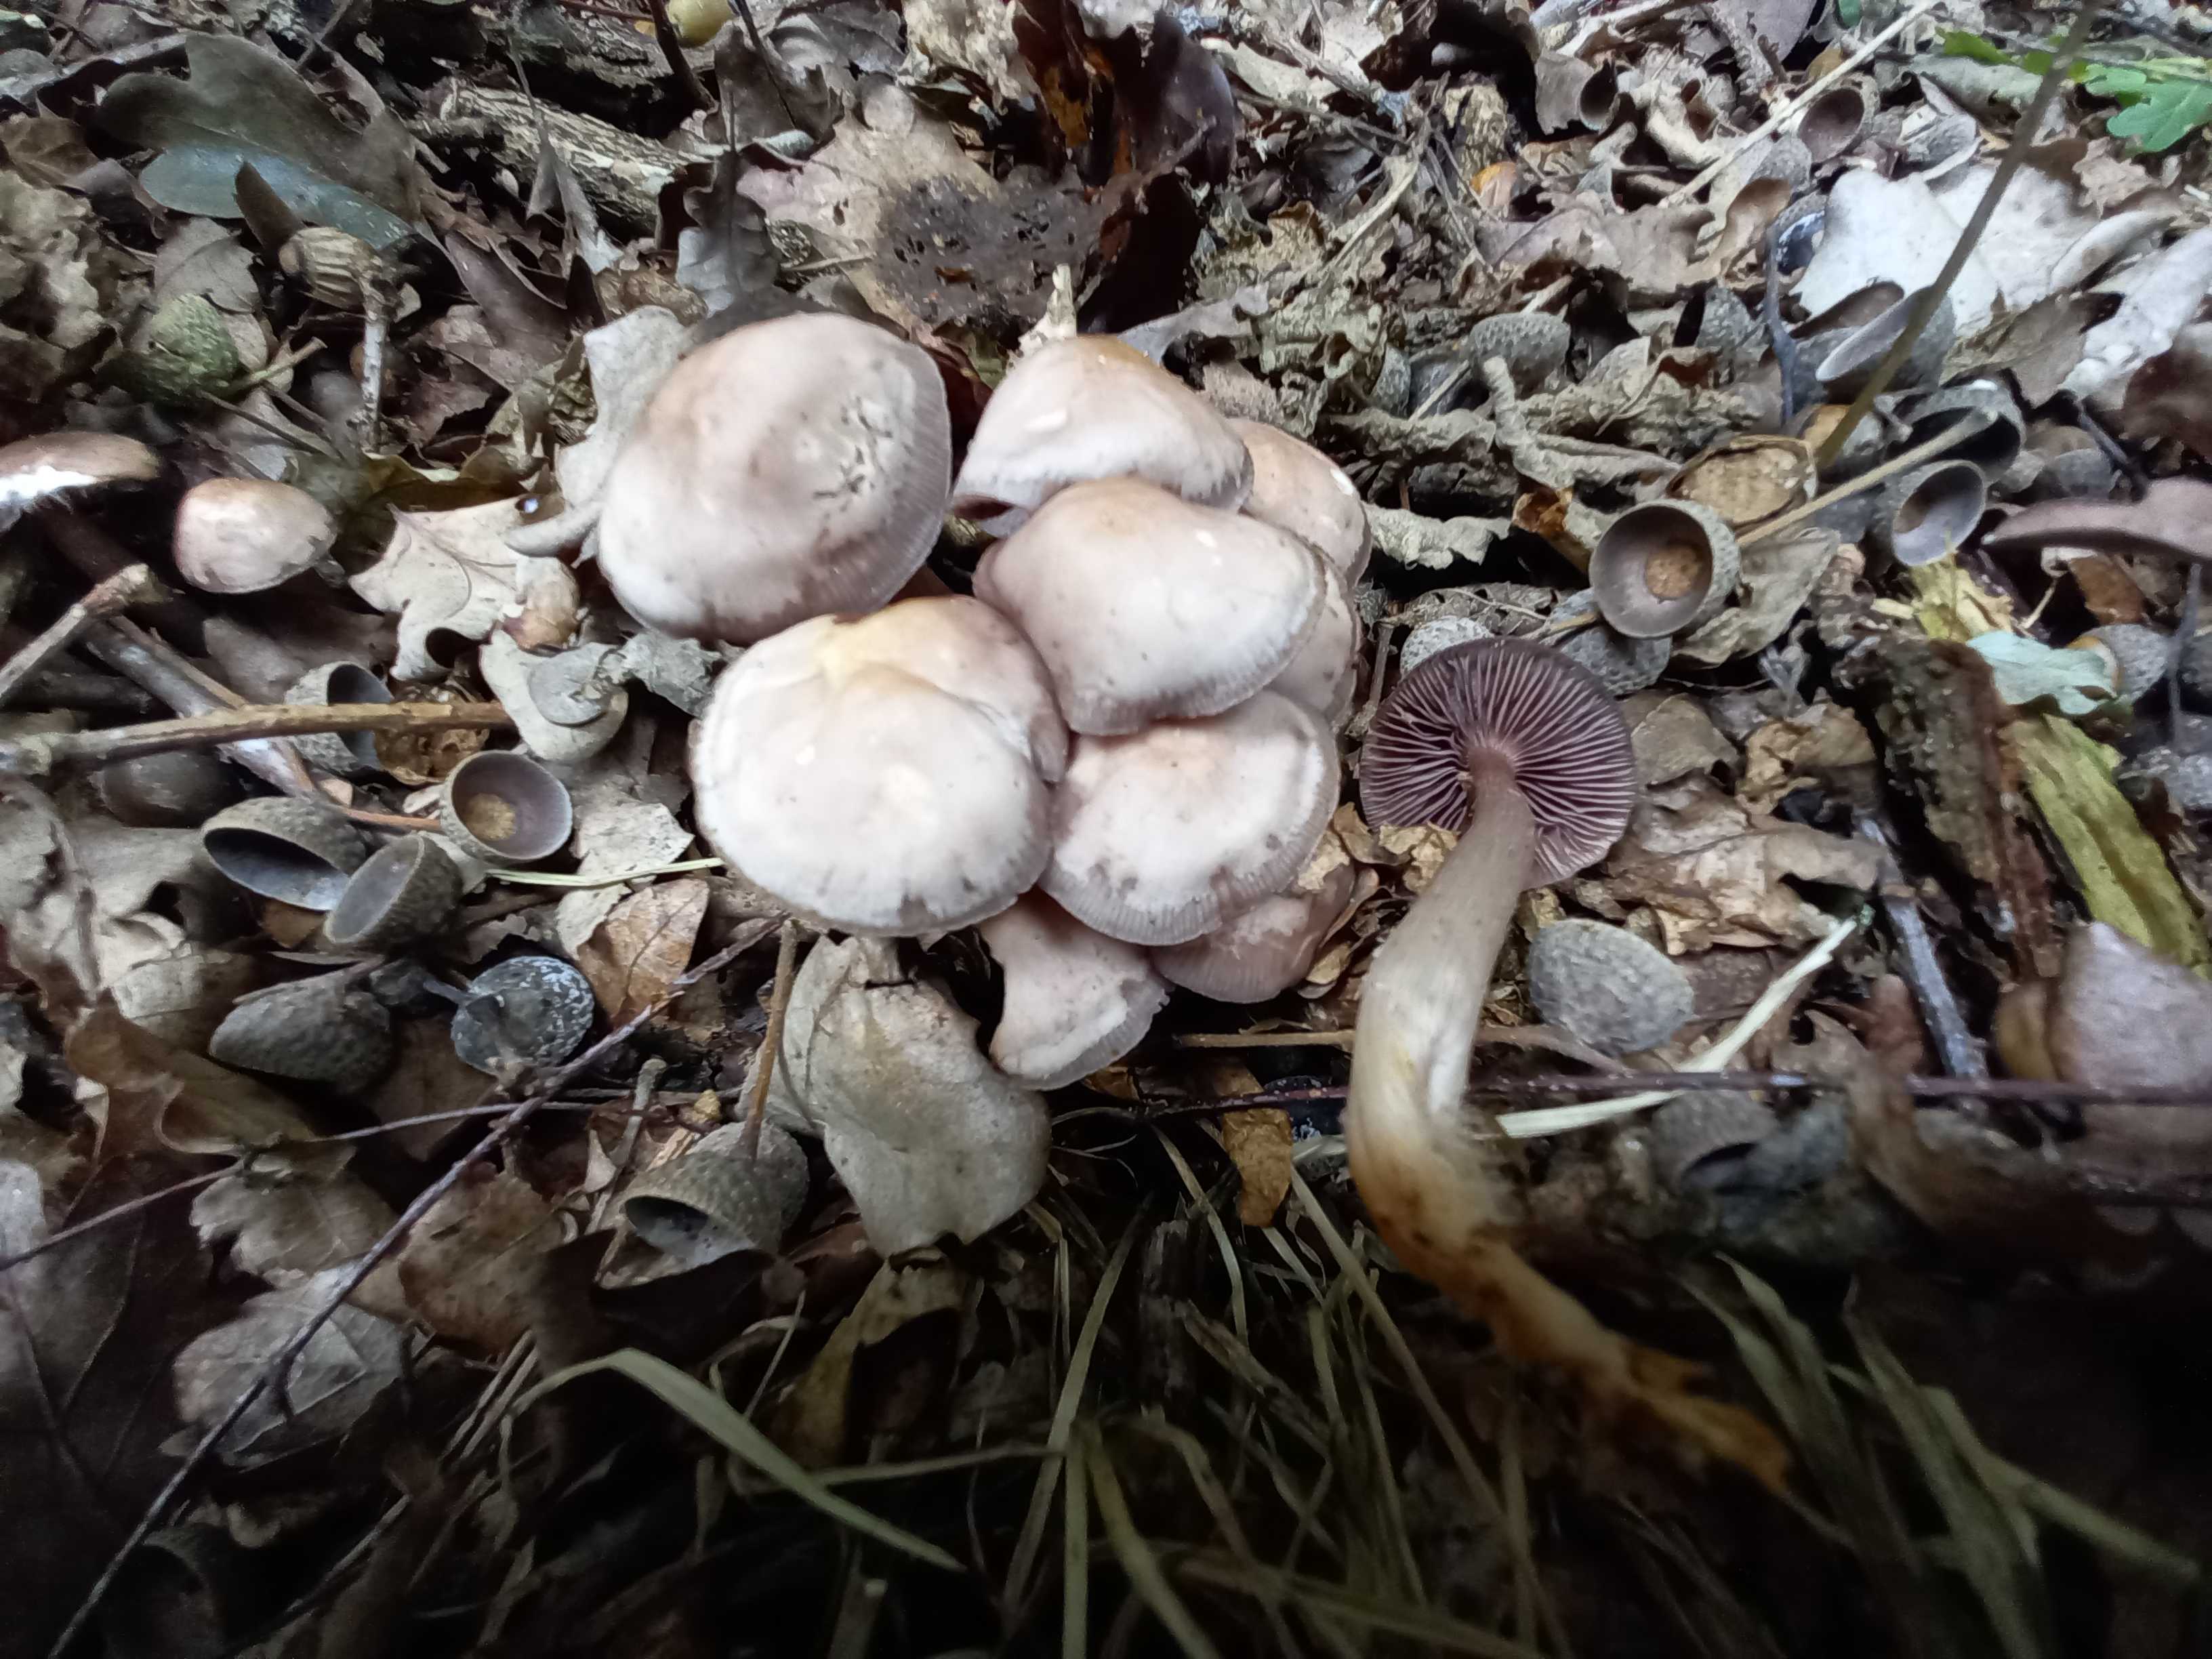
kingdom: Fungi
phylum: Basidiomycota
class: Agaricomycetes
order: Agaricales
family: Mycenaceae
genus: Mycena
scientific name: Mycena pelianthina
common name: mørkbladet huesvamp
